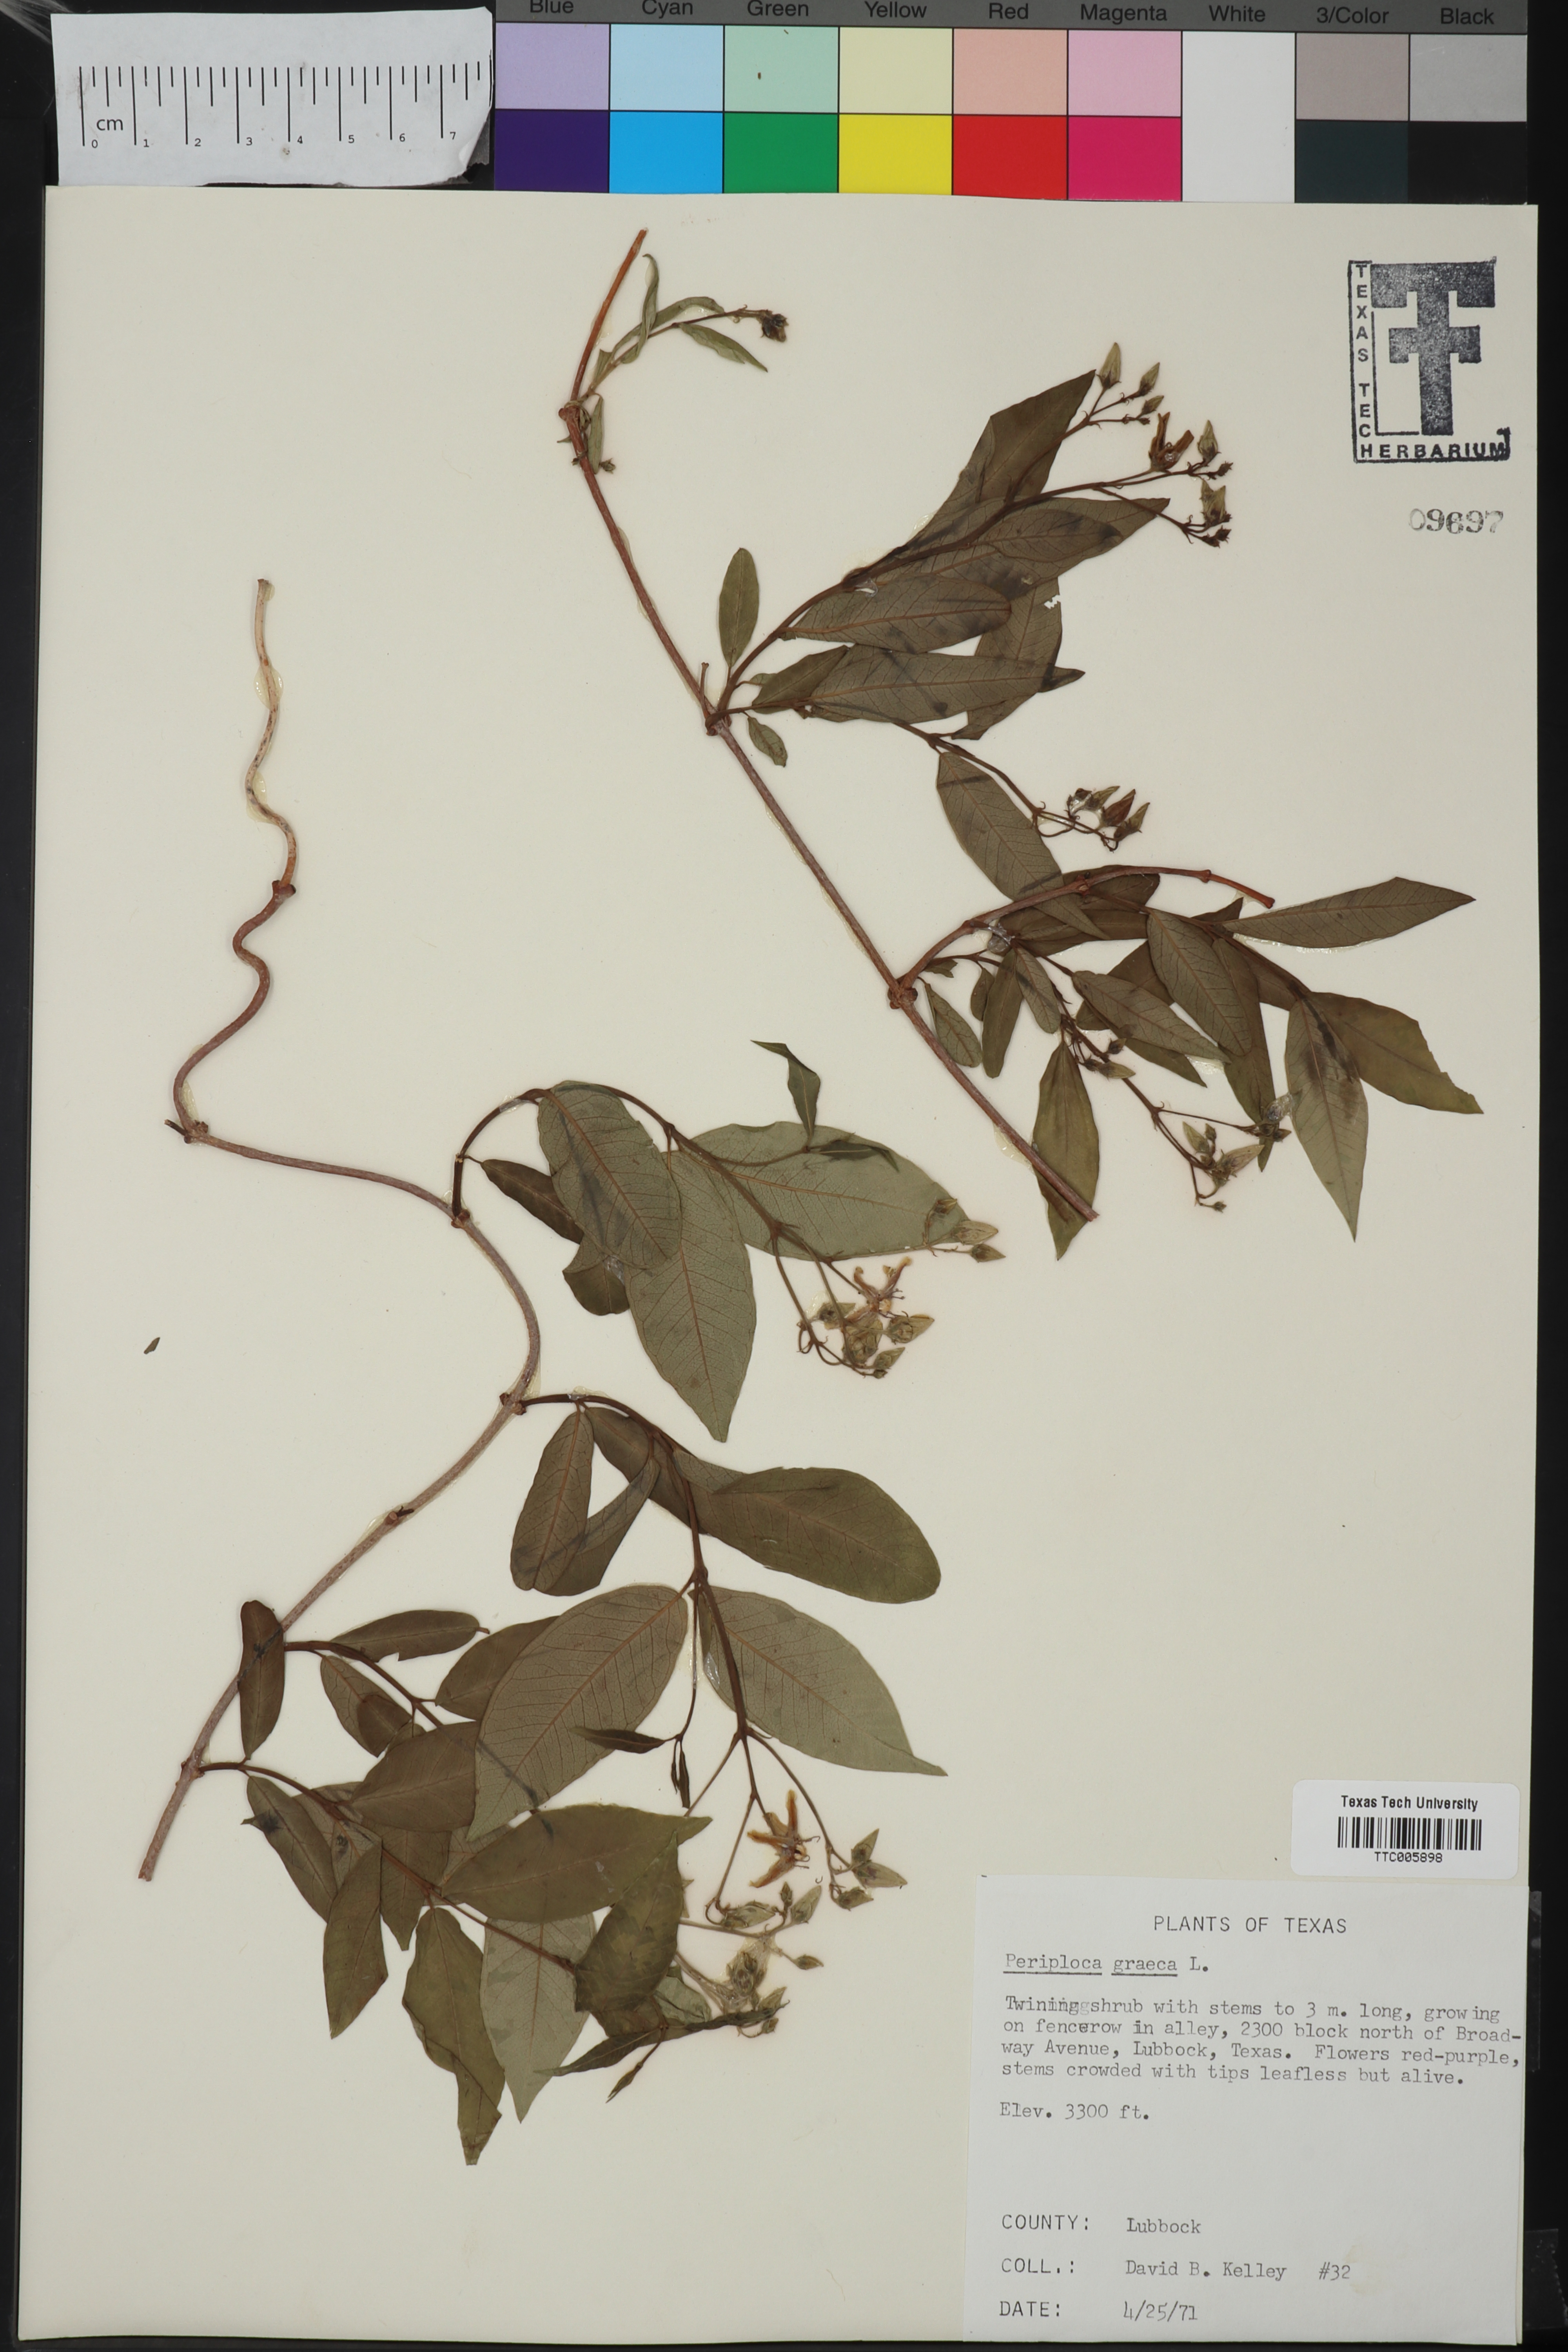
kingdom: Plantae
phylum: Tracheophyta
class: Magnoliopsida
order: Gentianales
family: Apocynaceae
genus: Periploca
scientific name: Periploca graeca
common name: Silkvine
